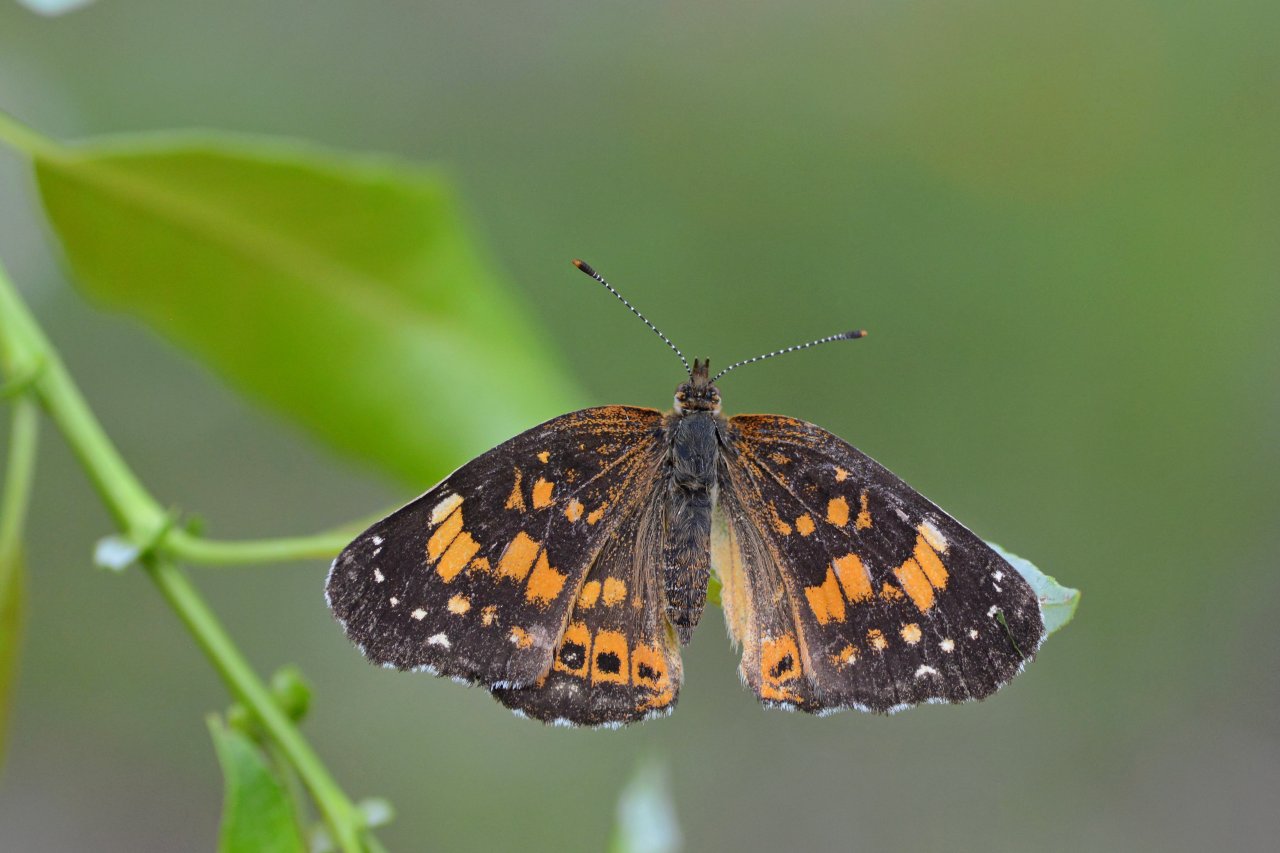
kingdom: Animalia
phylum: Arthropoda
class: Insecta
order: Lepidoptera
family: Nymphalidae
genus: Chlosyne
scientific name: Chlosyne nycteis
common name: Silvery Checkerspot
